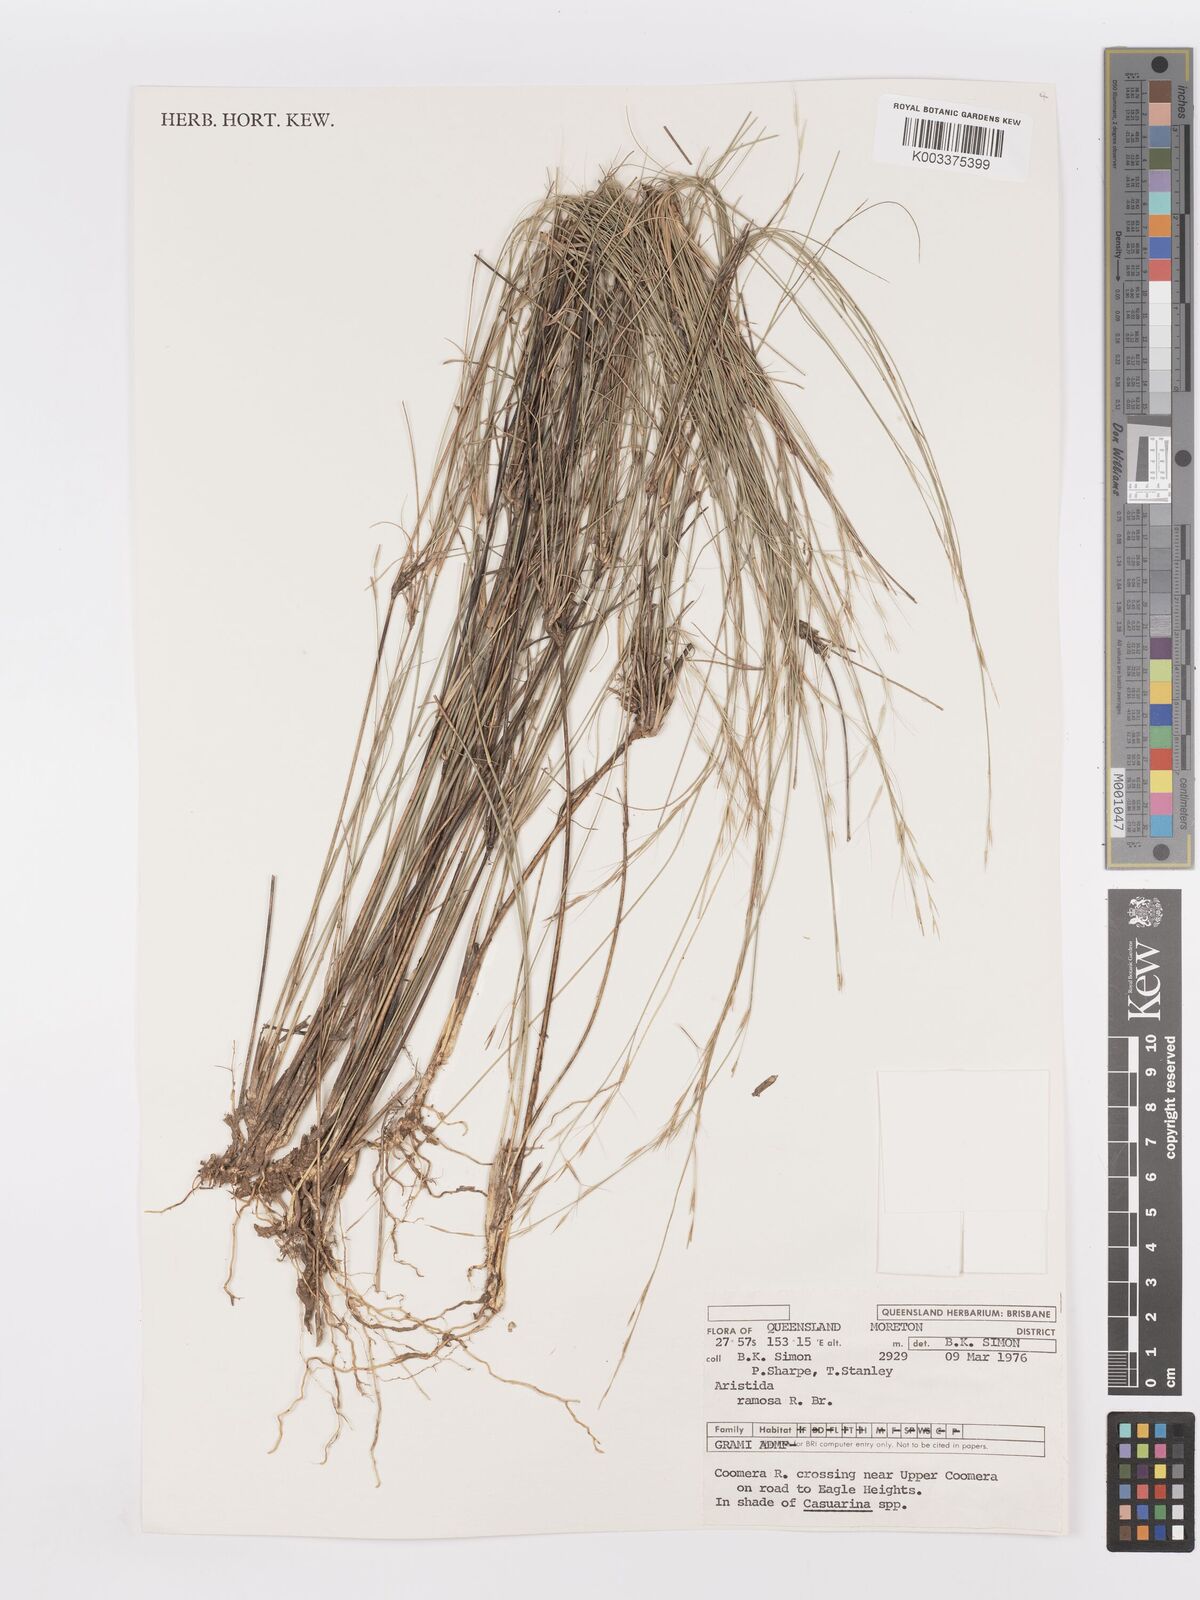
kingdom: Plantae
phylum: Tracheophyta
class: Liliopsida
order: Poales
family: Poaceae
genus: Aristida
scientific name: Aristida ramosa
